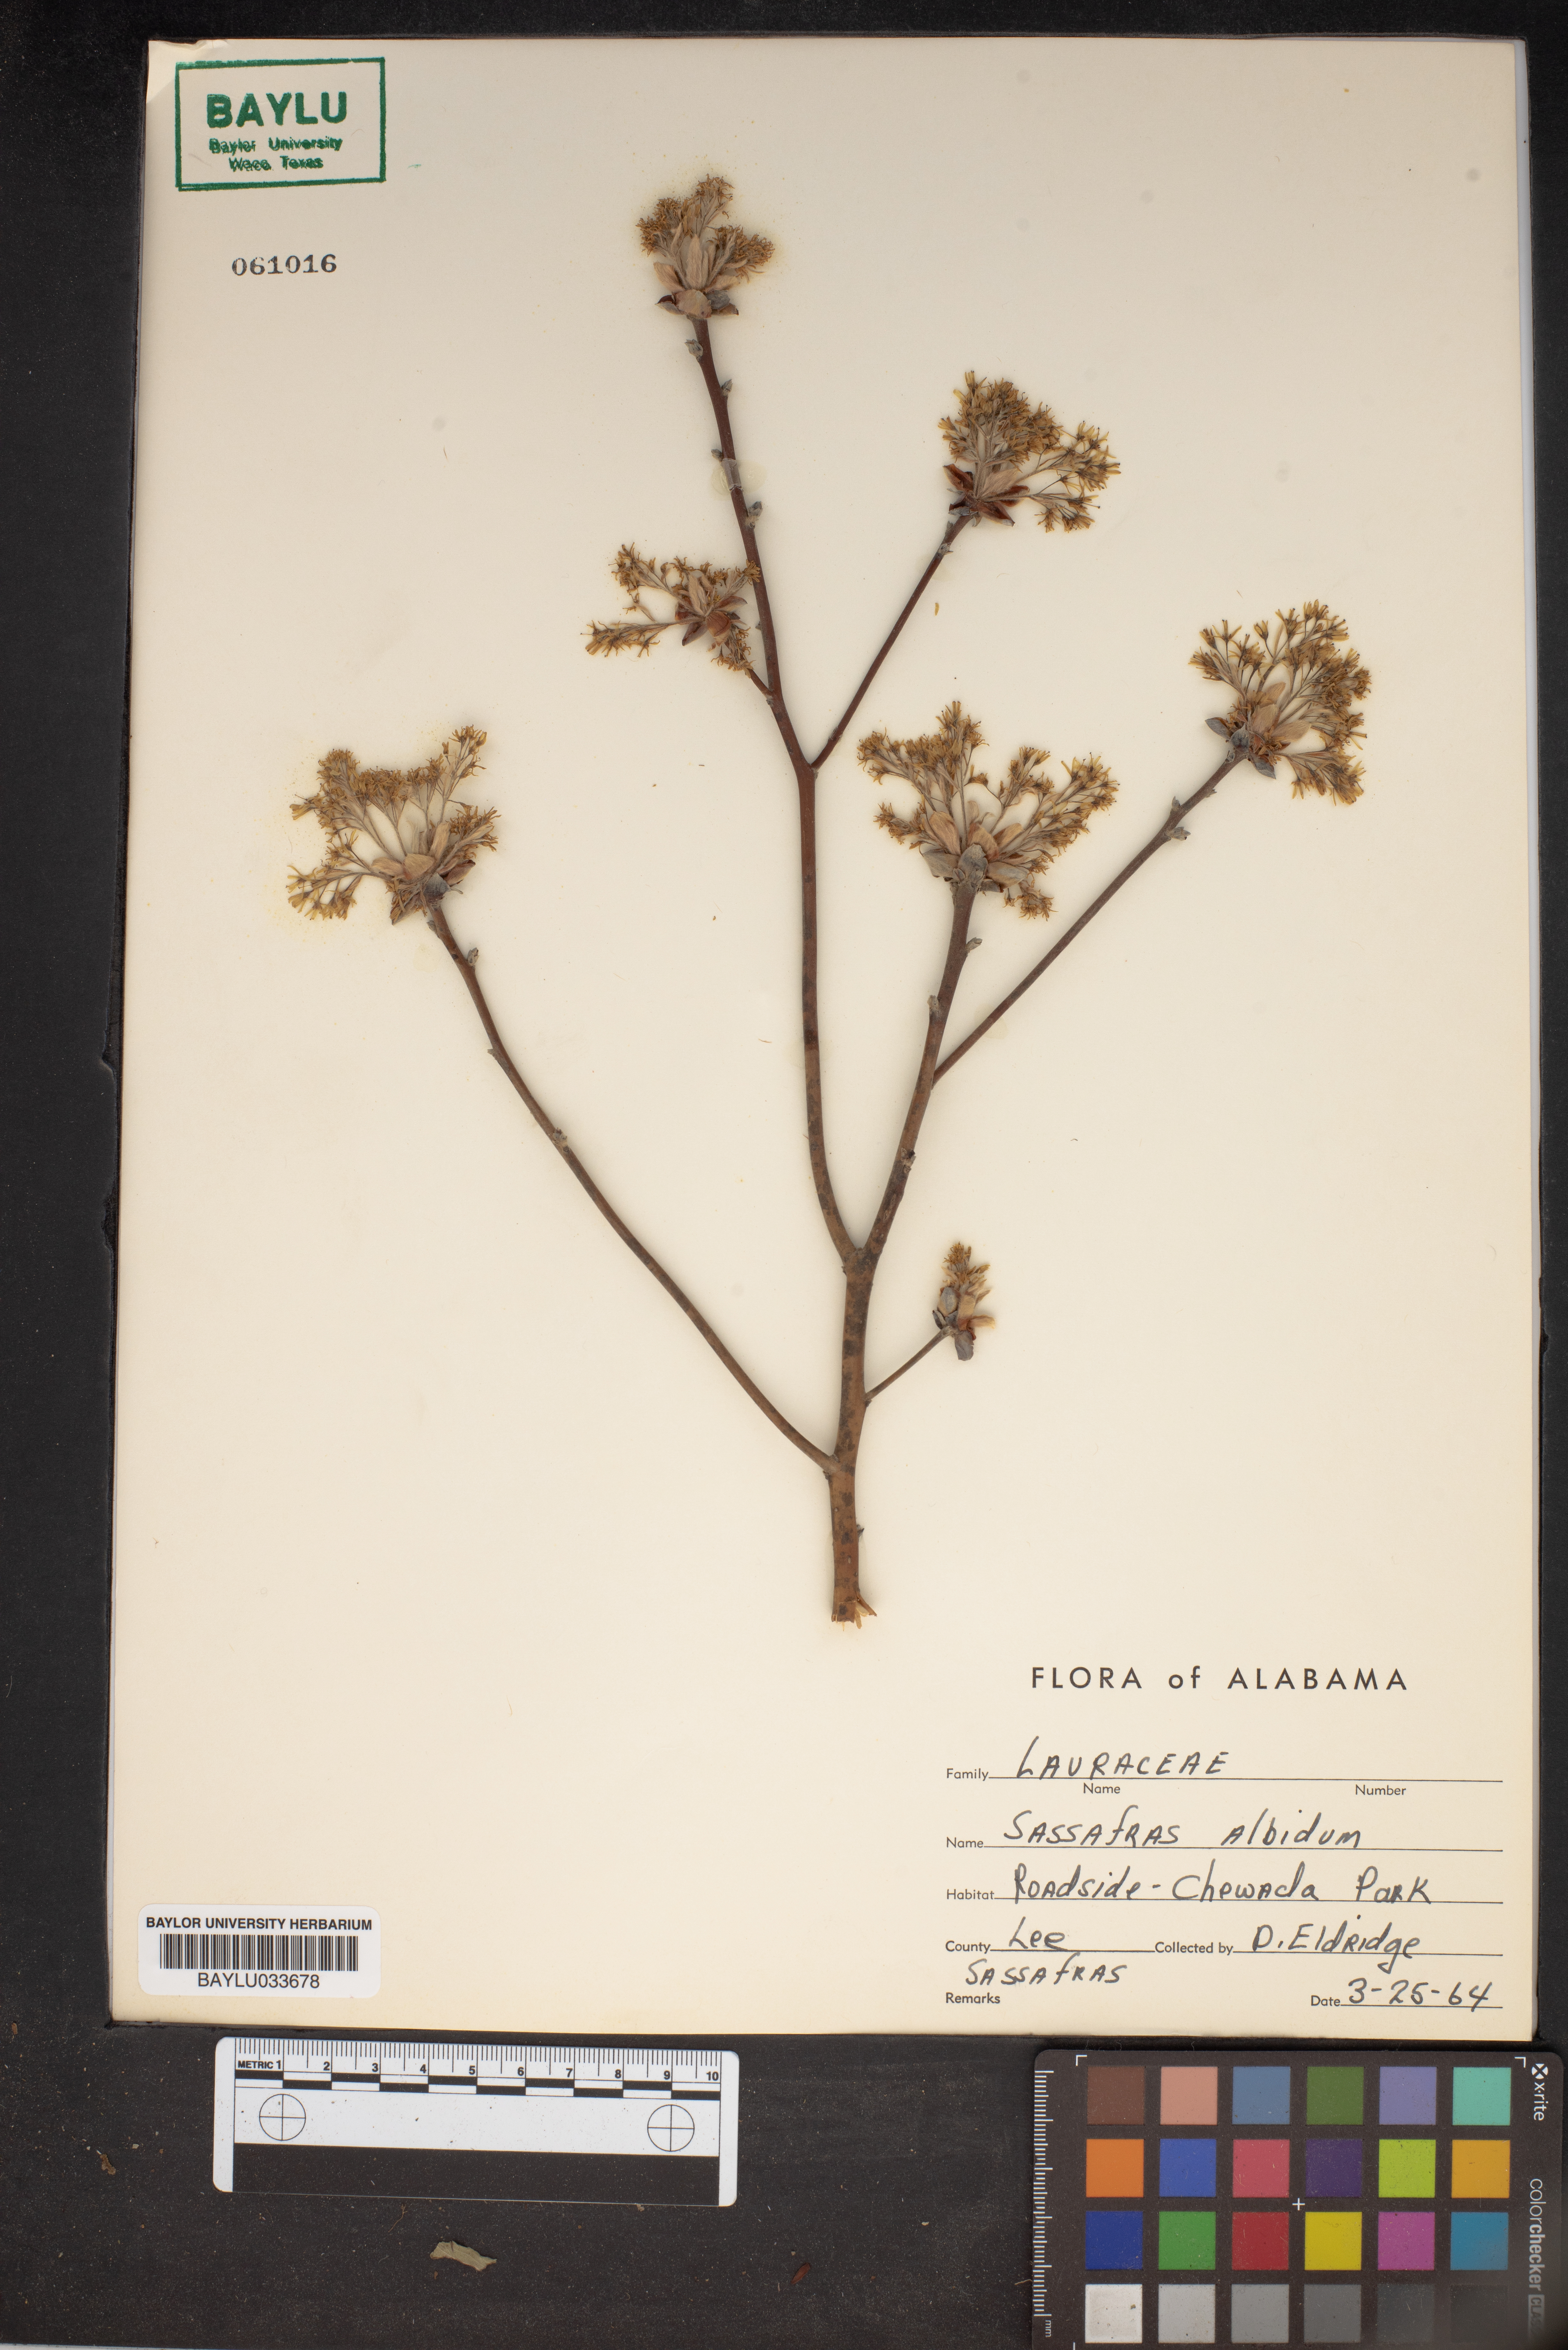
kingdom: Plantae
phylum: Tracheophyta
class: Magnoliopsida
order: Laurales
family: Lauraceae
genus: Sassafras
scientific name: Sassafras albidum
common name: Sassafras
